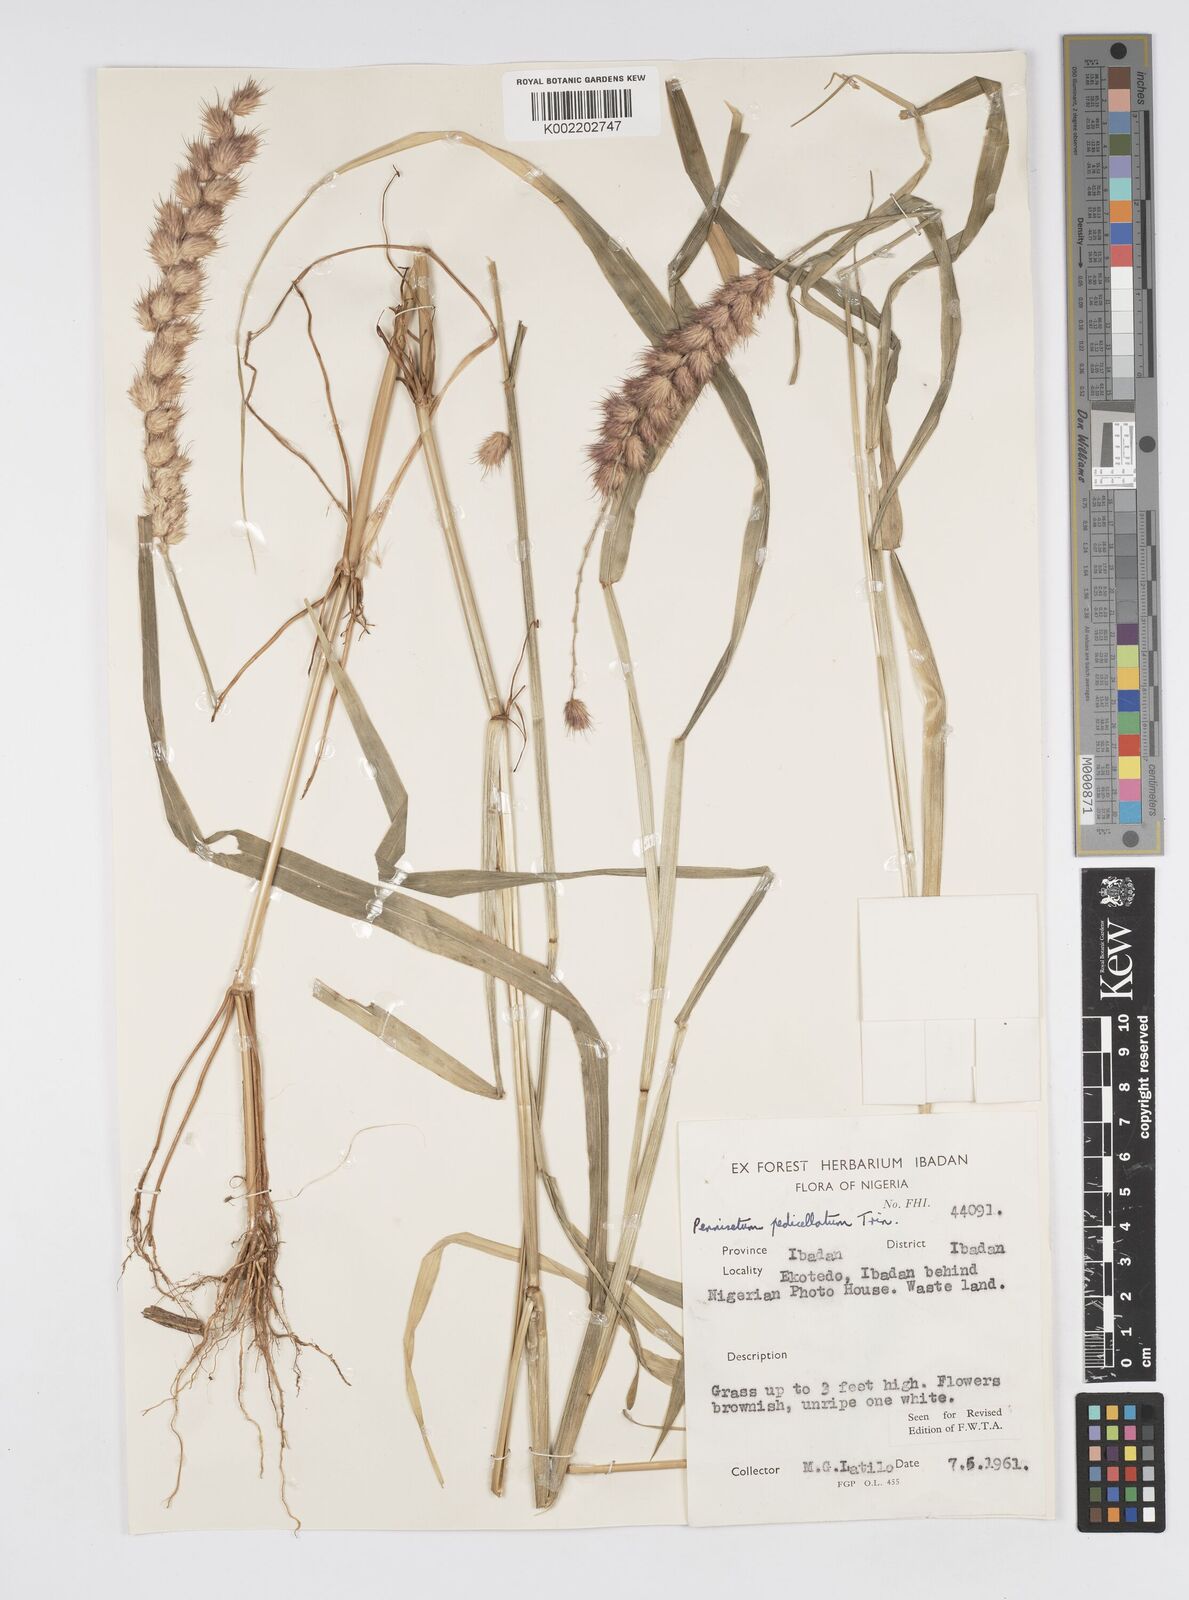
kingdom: Plantae
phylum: Tracheophyta
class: Liliopsida
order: Poales
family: Poaceae
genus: Cenchrus
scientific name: Cenchrus pedicellatus
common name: Hairy fountain grass
